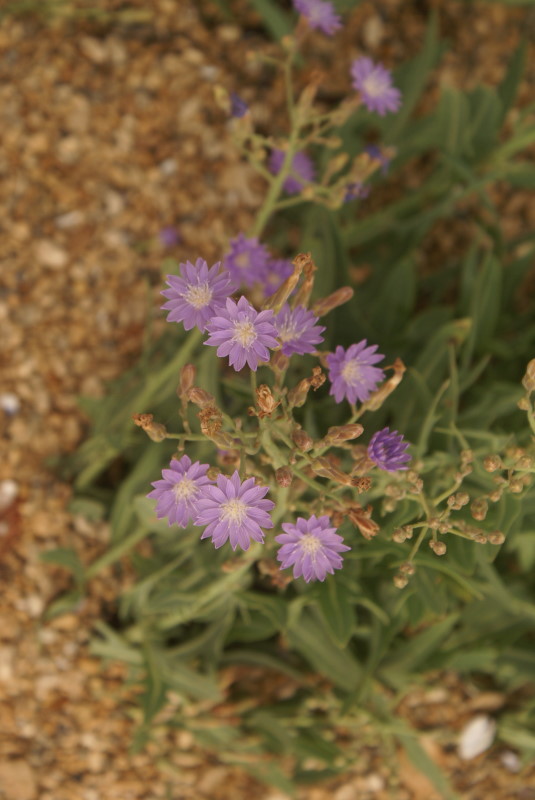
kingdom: Plantae
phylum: Tracheophyta
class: Magnoliopsida
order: Asterales
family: Asteraceae
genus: Lactuca
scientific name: Lactuca tatarica
